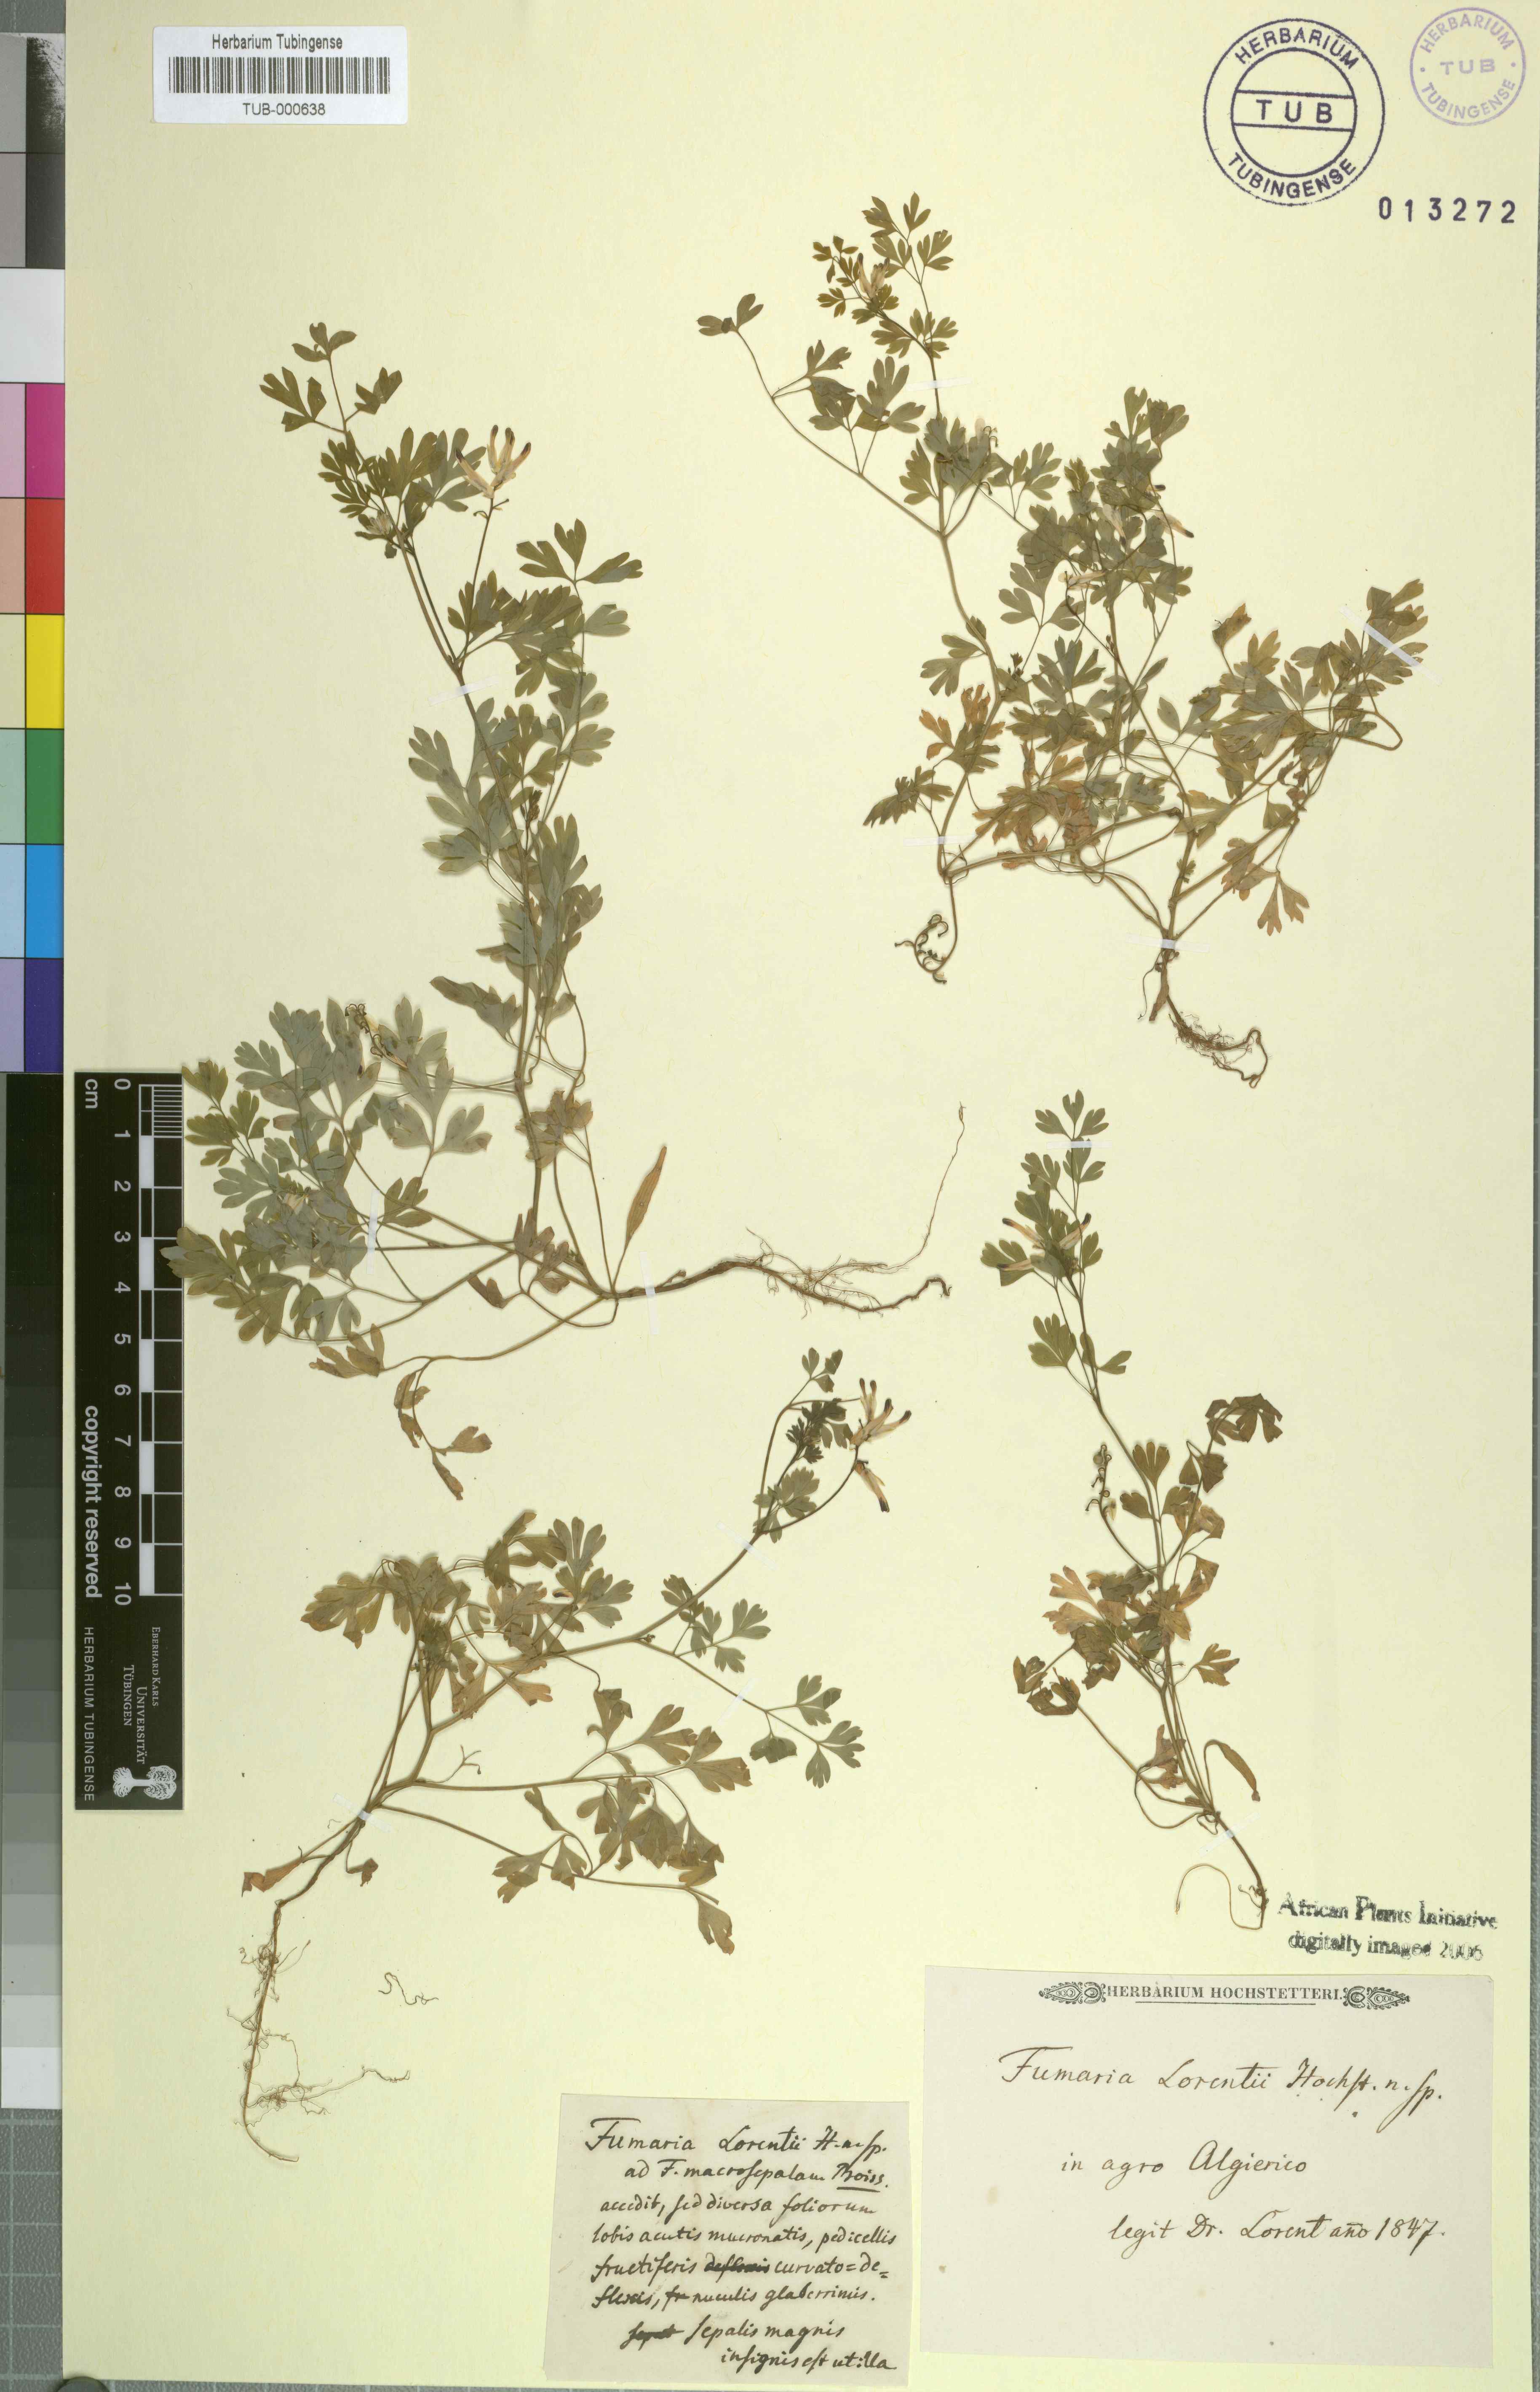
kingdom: Plantae
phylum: Tracheophyta
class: Magnoliopsida
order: Ranunculales
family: Papaveraceae
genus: Fumaria
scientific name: Fumaria
